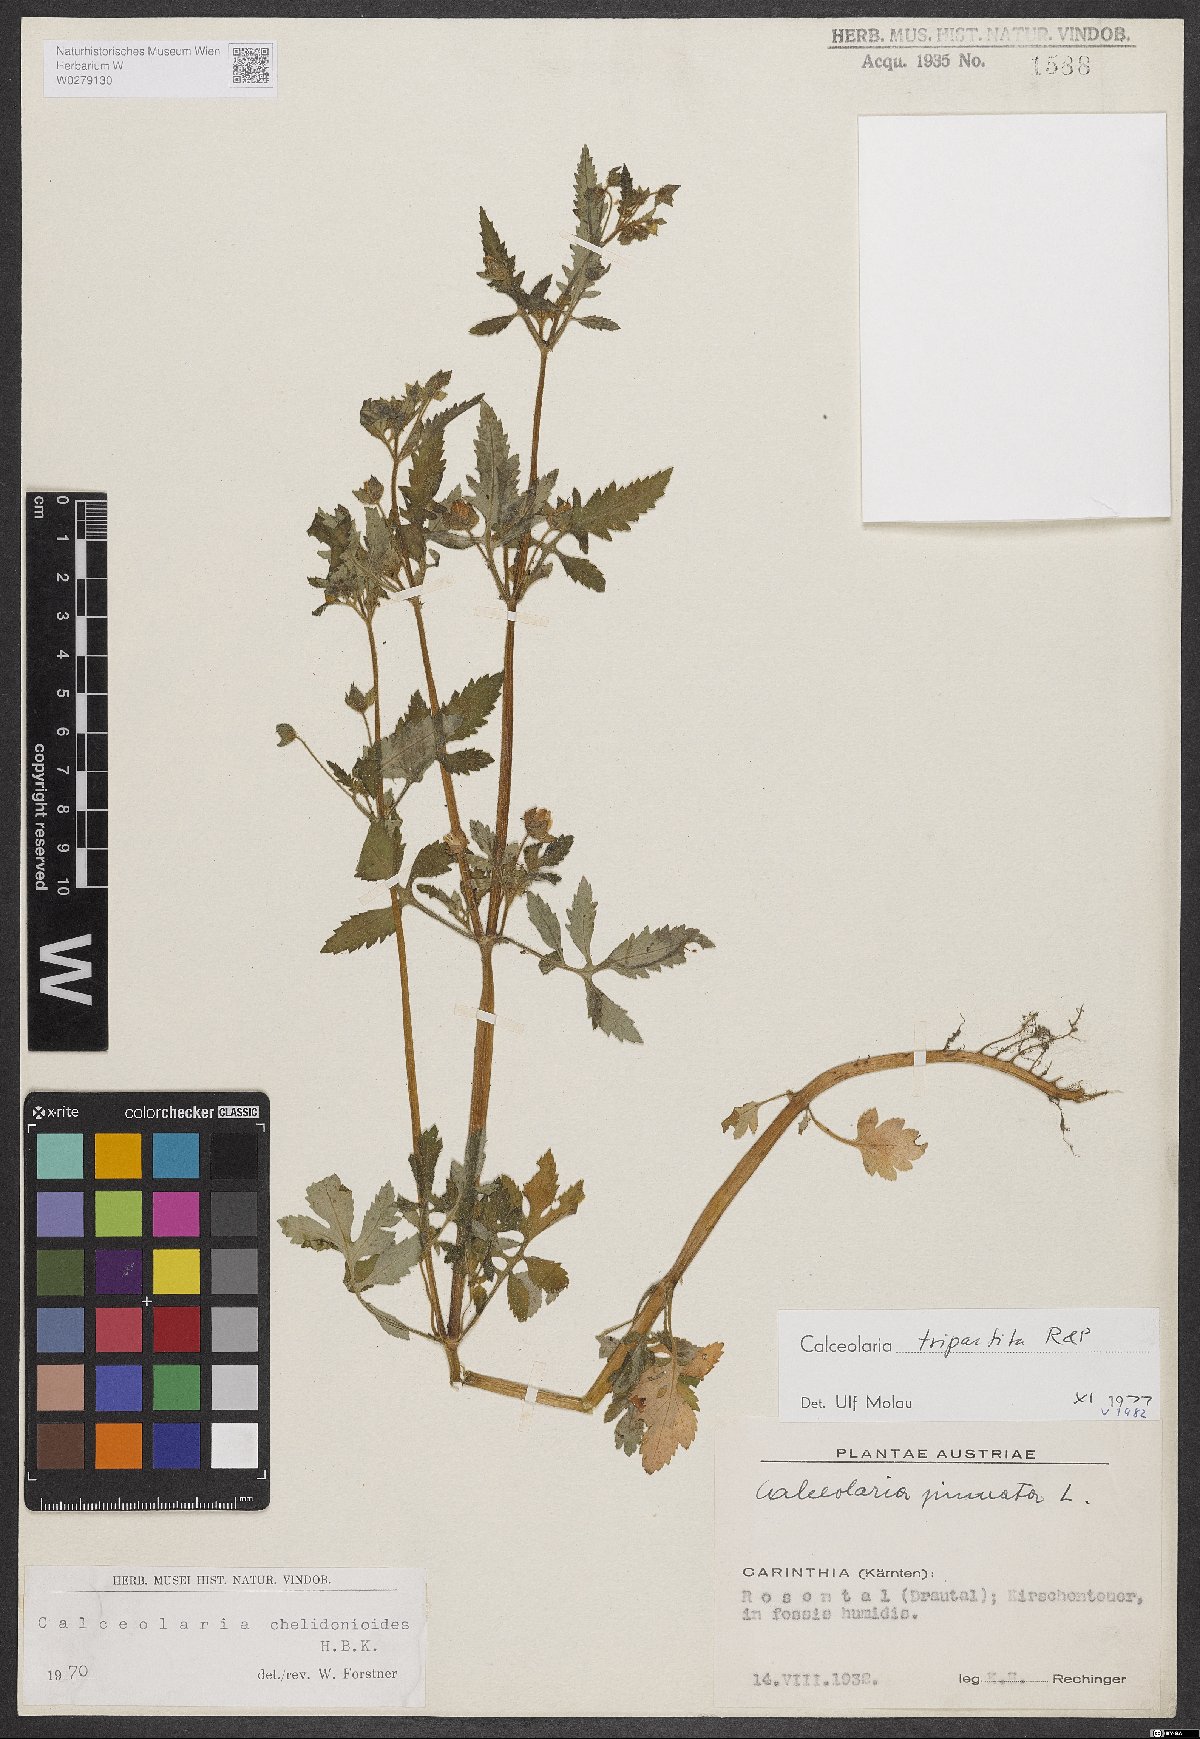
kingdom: Plantae
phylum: Tracheophyta
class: Magnoliopsida
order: Lamiales
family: Calceolariaceae
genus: Calceolaria
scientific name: Calceolaria tripartita
